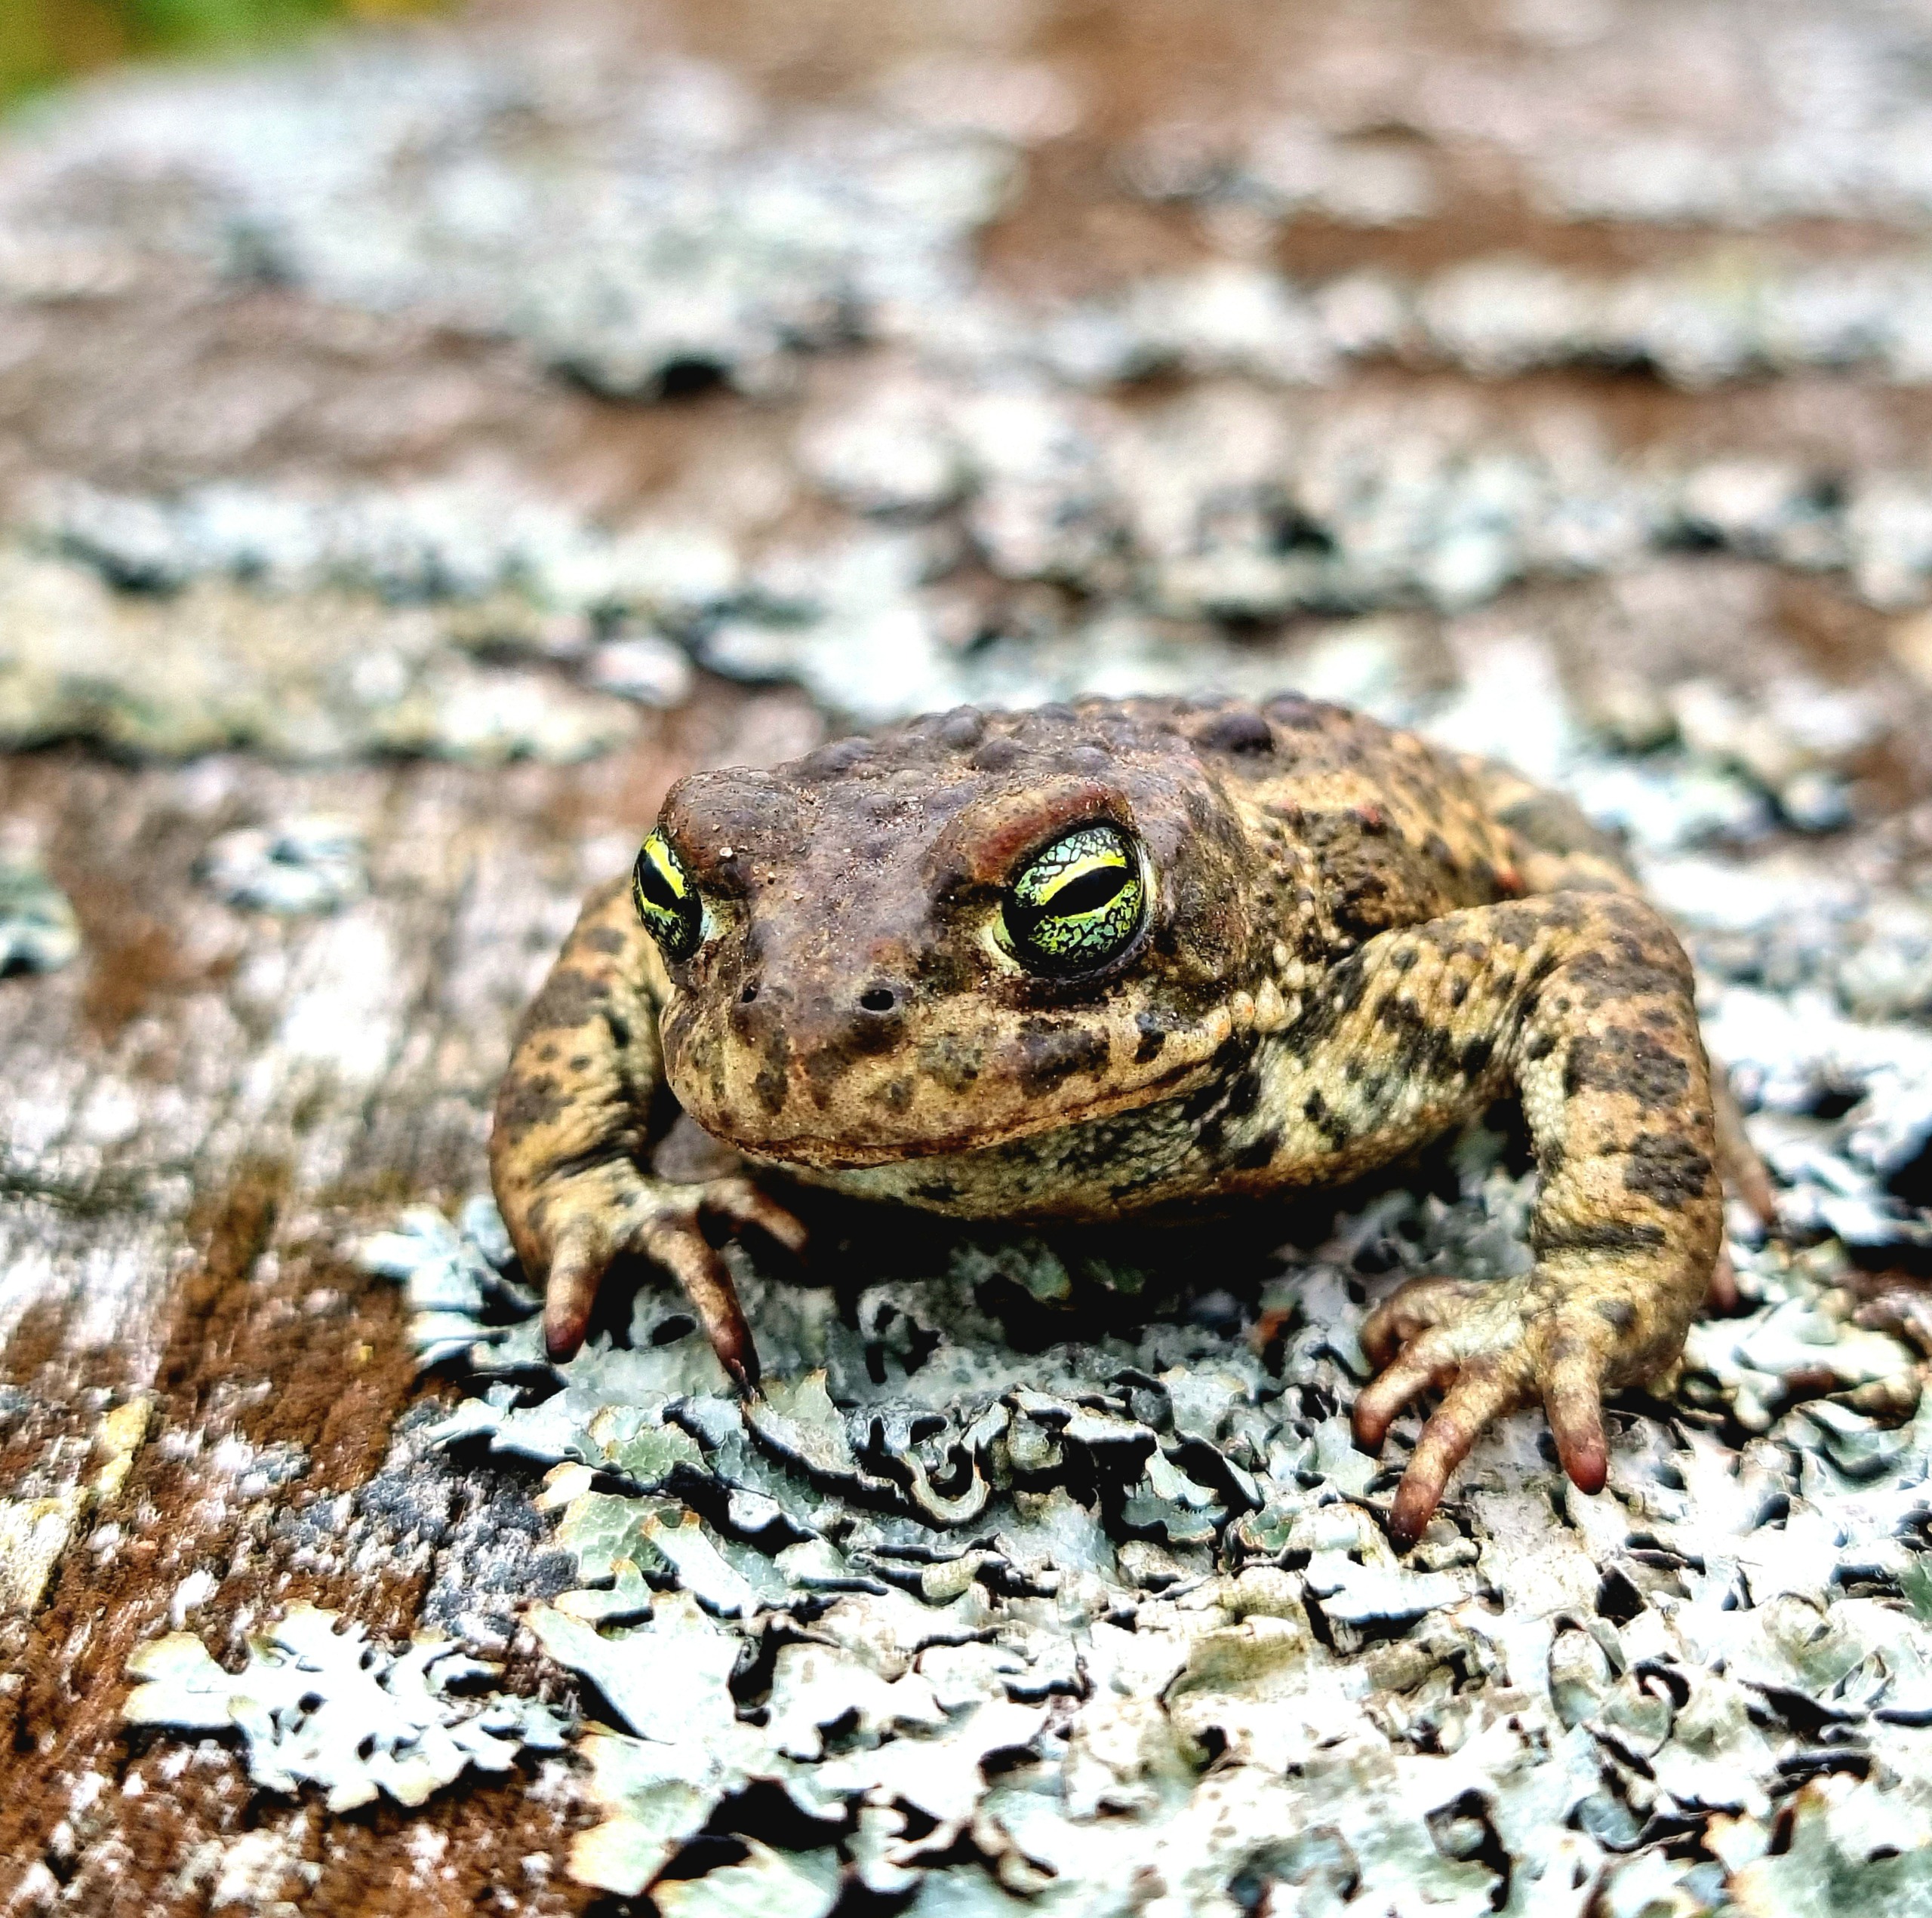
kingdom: Animalia
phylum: Chordata
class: Amphibia
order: Anura
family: Bufonidae
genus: Epidalea
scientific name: Epidalea calamita
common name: Strandtudse
